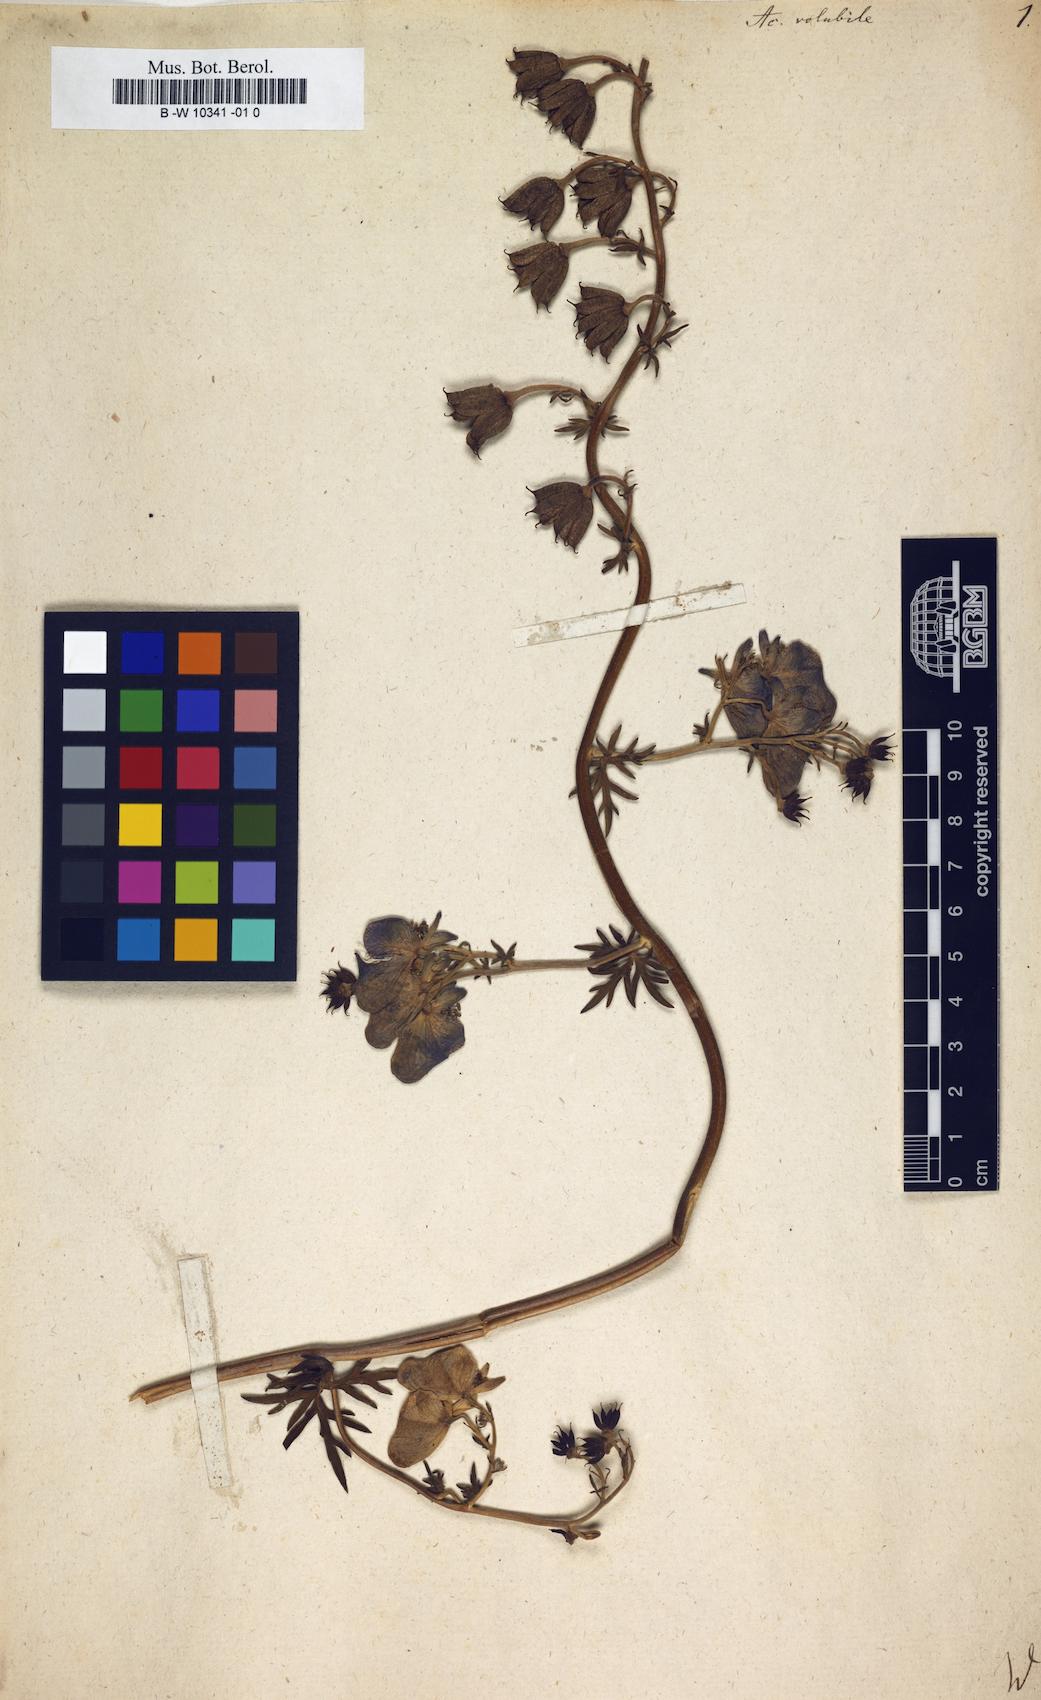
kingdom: Plantae
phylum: Tracheophyta
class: Magnoliopsida
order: Ranunculales
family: Ranunculaceae
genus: Aconitum
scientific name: Aconitum volubile
